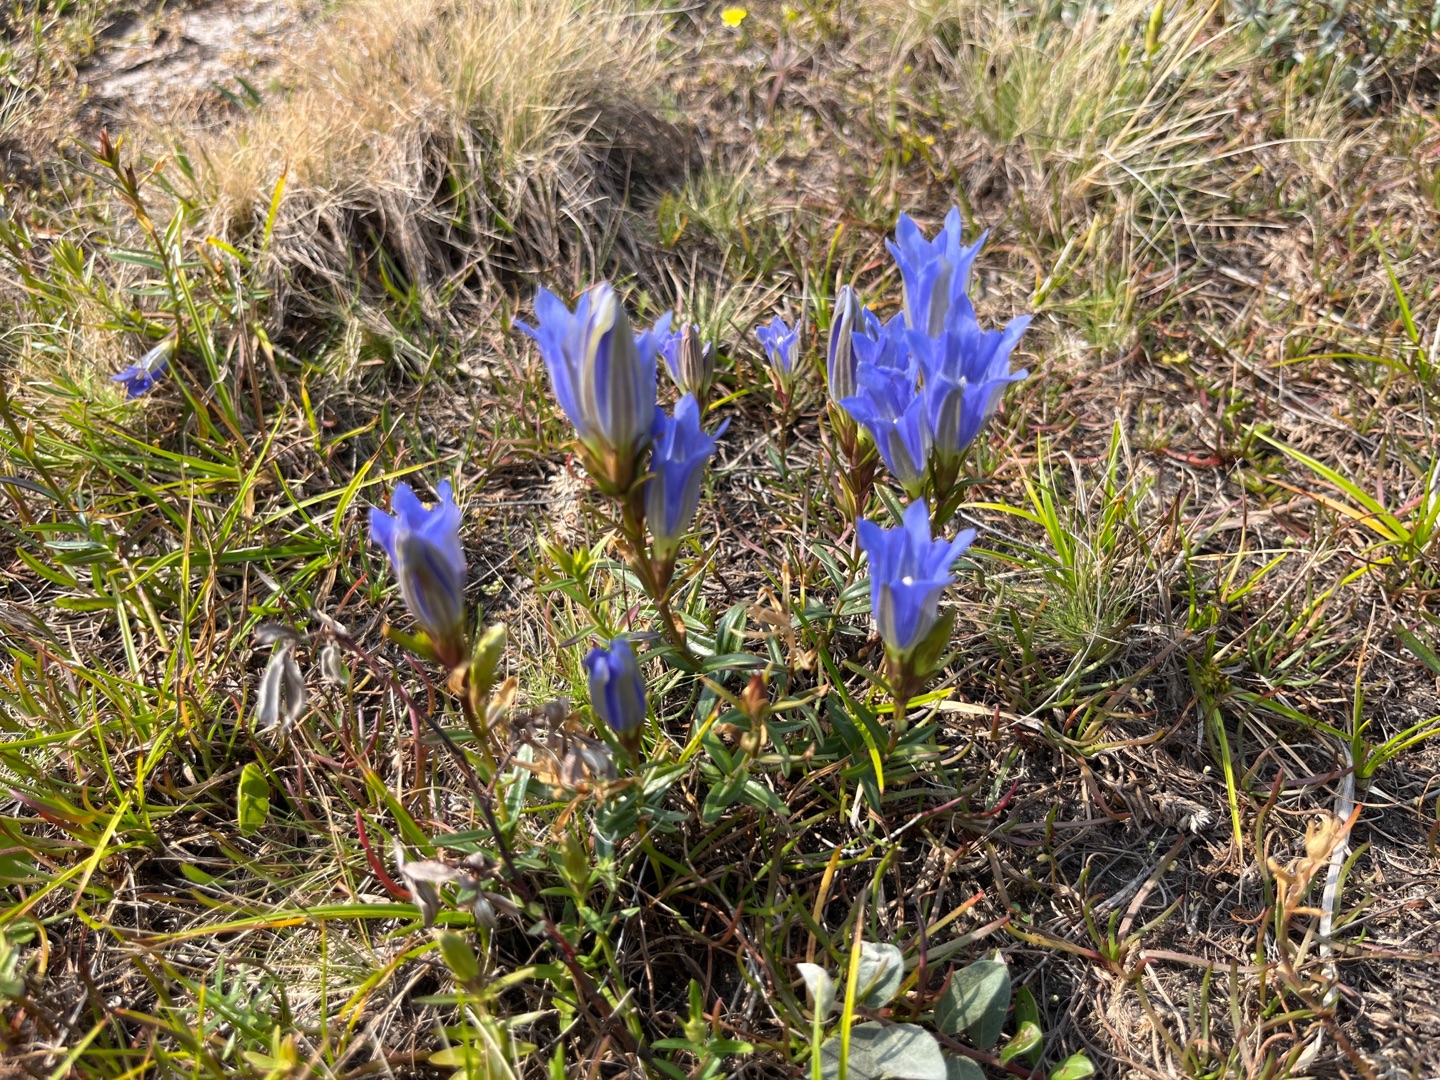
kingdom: Plantae
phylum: Tracheophyta
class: Magnoliopsida
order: Gentianales
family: Gentianaceae
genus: Gentiana
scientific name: Gentiana pneumonanthe
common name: Klokke-ensian
